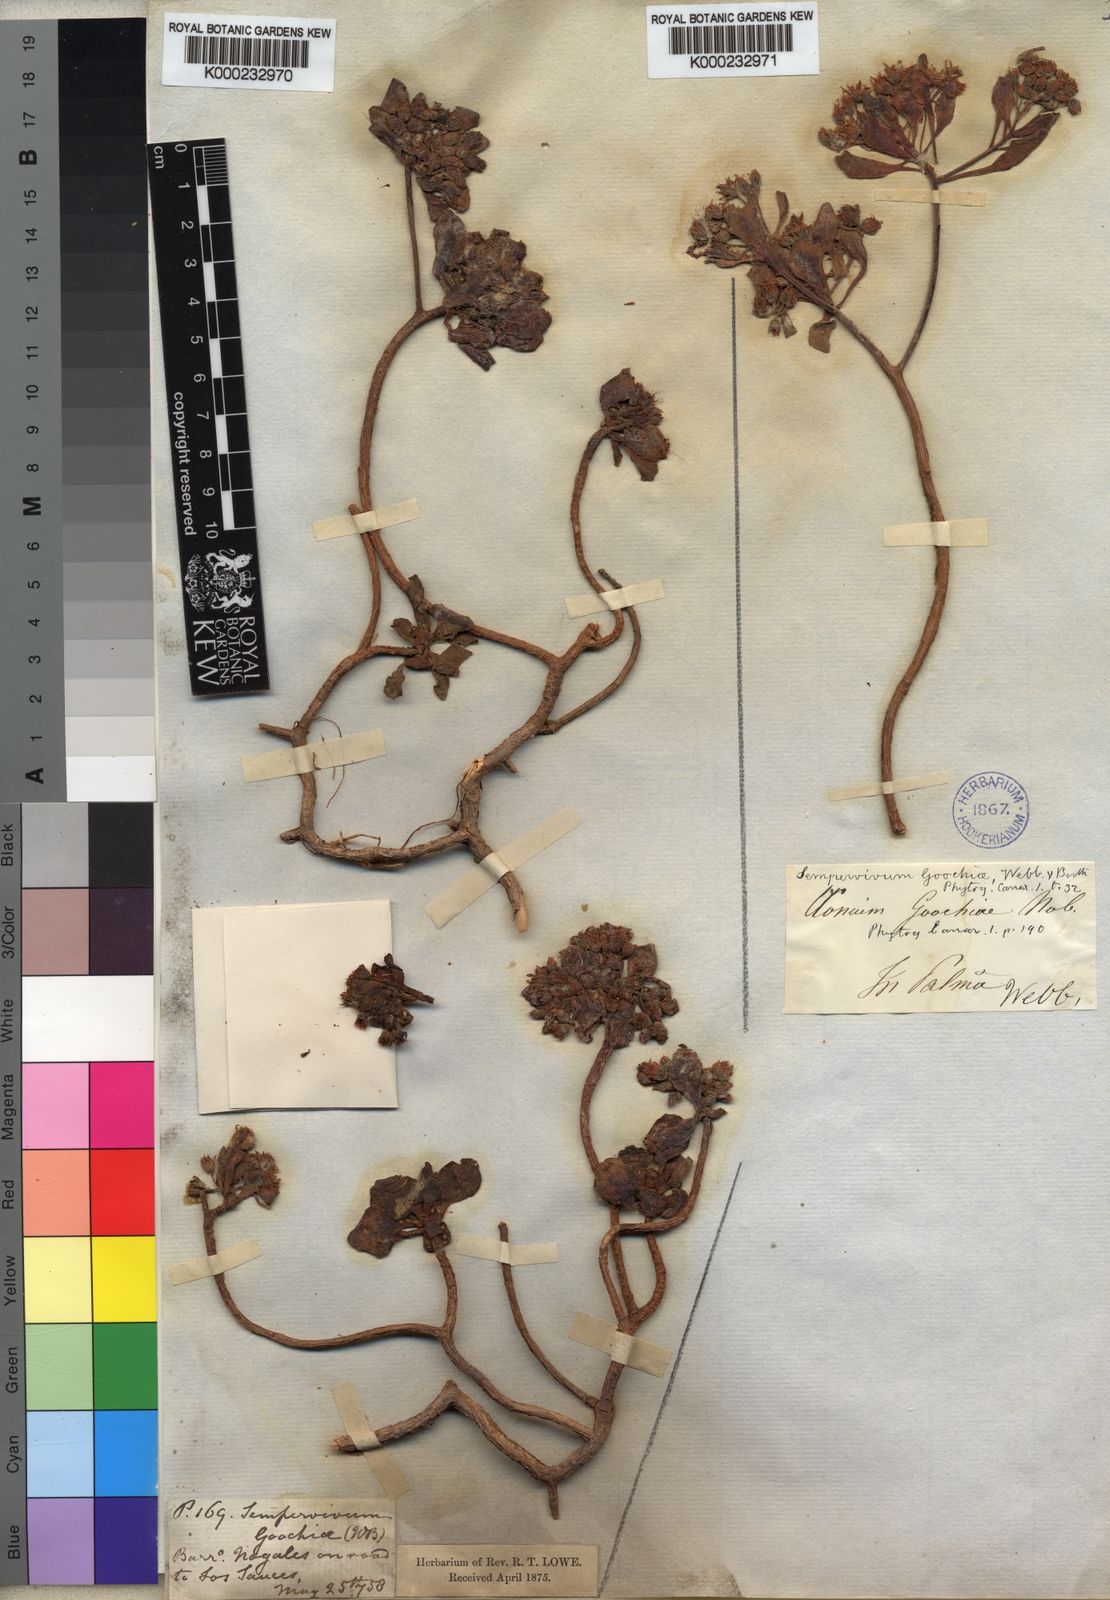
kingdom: Plantae
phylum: Tracheophyta
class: Magnoliopsida
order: Saxifragales
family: Crassulaceae
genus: Aeonium
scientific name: Aeonium goochiae
